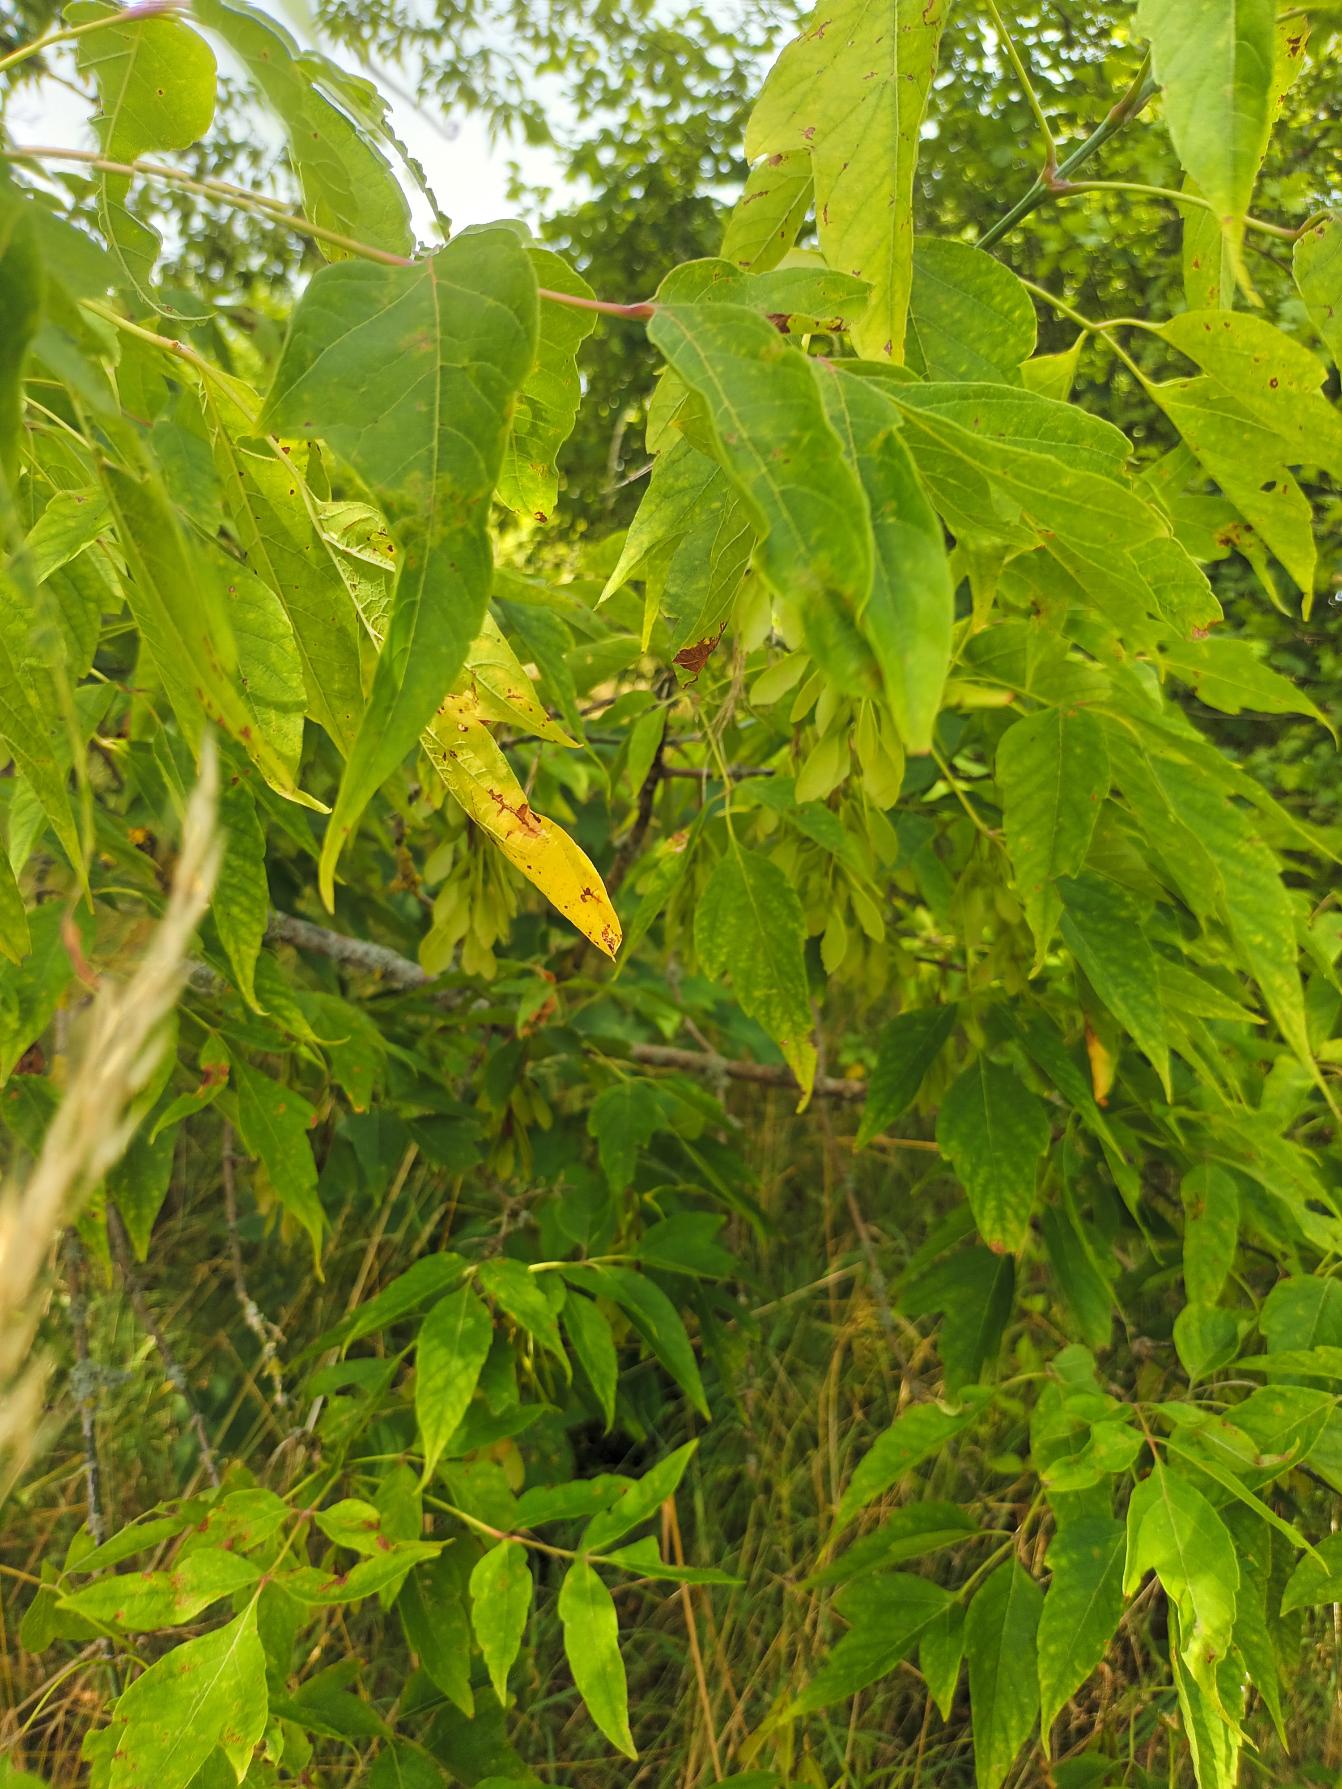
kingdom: Plantae
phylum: Tracheophyta
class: Magnoliopsida
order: Sapindales
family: Sapindaceae
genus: Acer
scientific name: Acer negundo
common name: Askebladet løn
